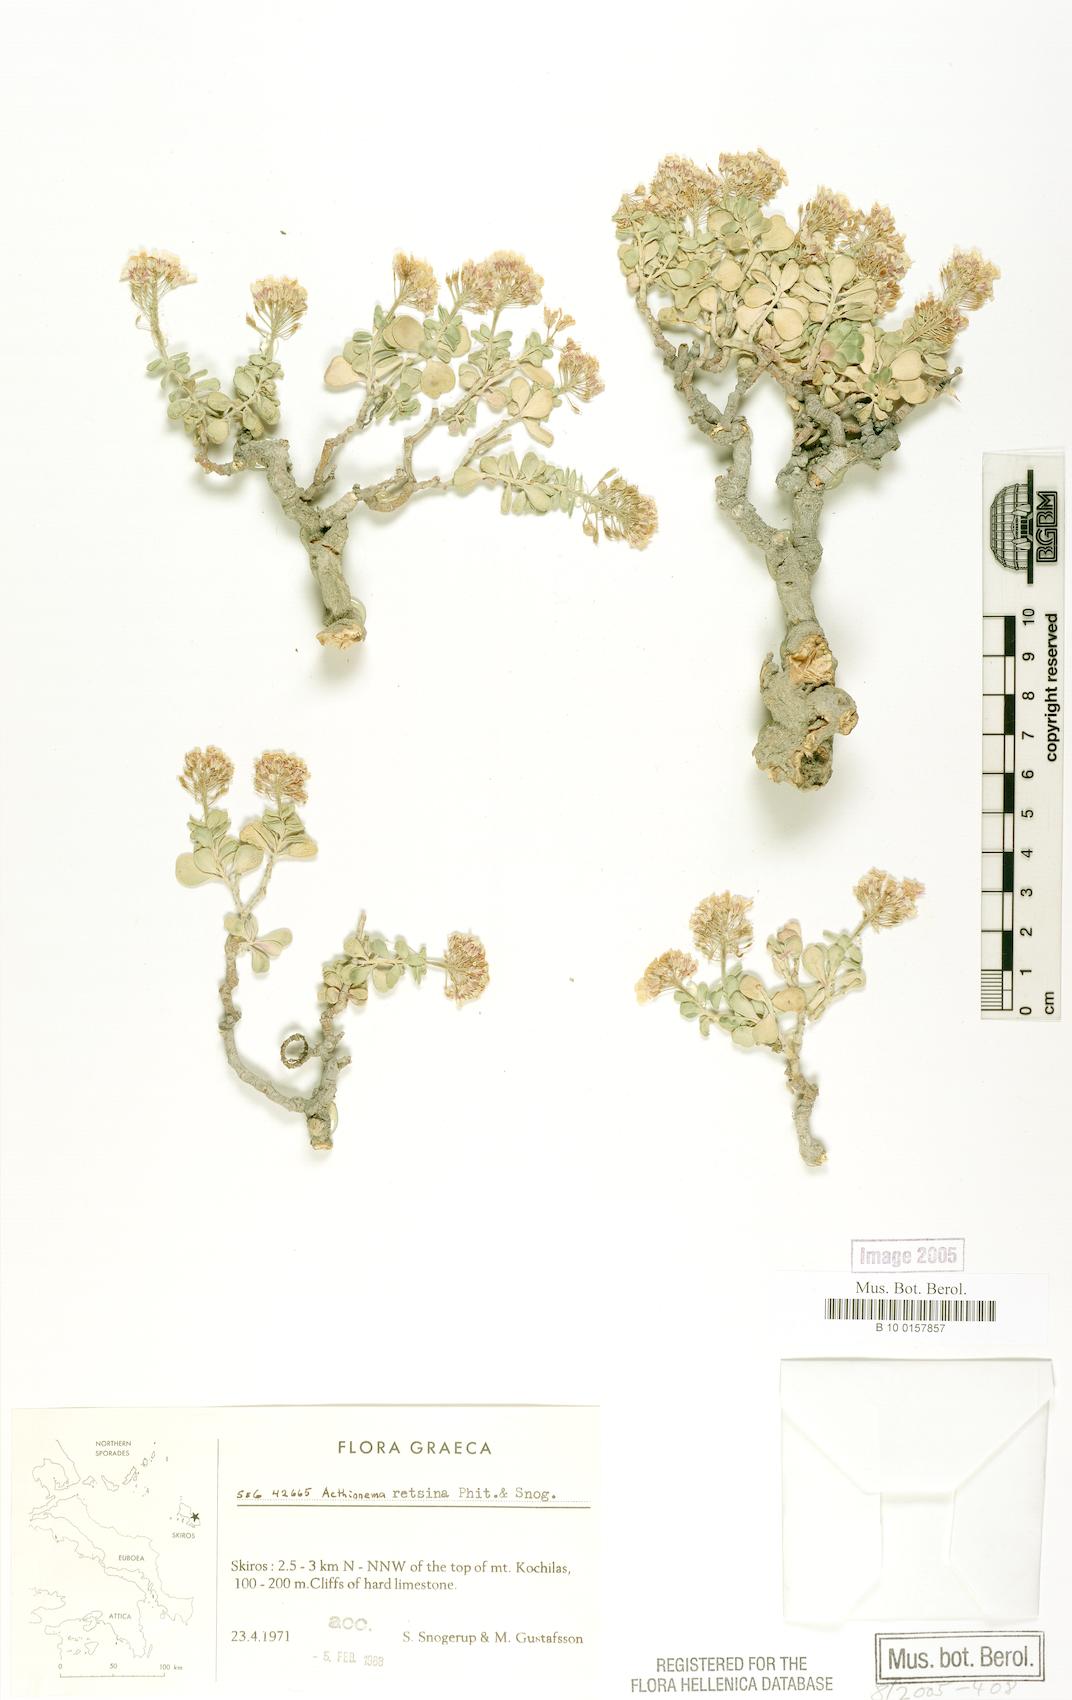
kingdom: Plantae
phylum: Tracheophyta
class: Magnoliopsida
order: Brassicales
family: Brassicaceae
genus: Aethionema
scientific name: Aethionema retsina
